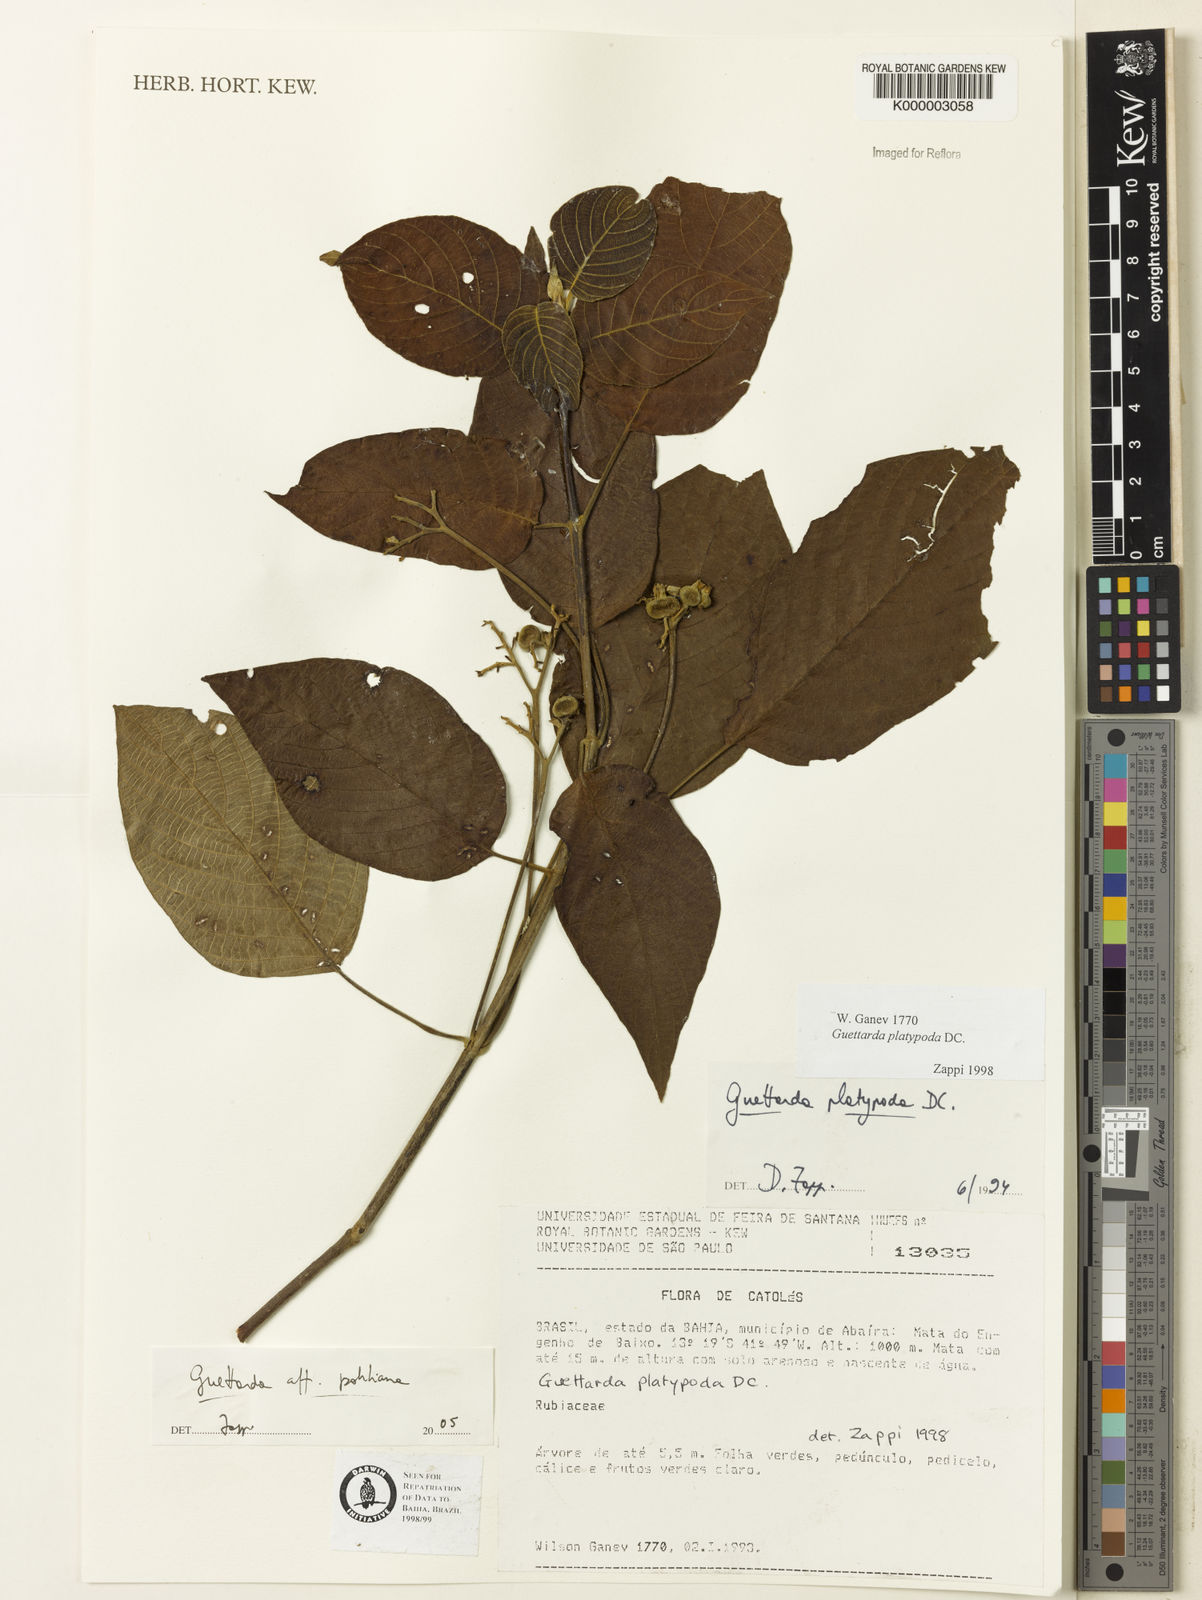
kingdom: Plantae
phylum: Tracheophyta
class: Magnoliopsida
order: Gentianales
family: Rubiaceae
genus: Guettarda
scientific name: Guettarda platypoda
